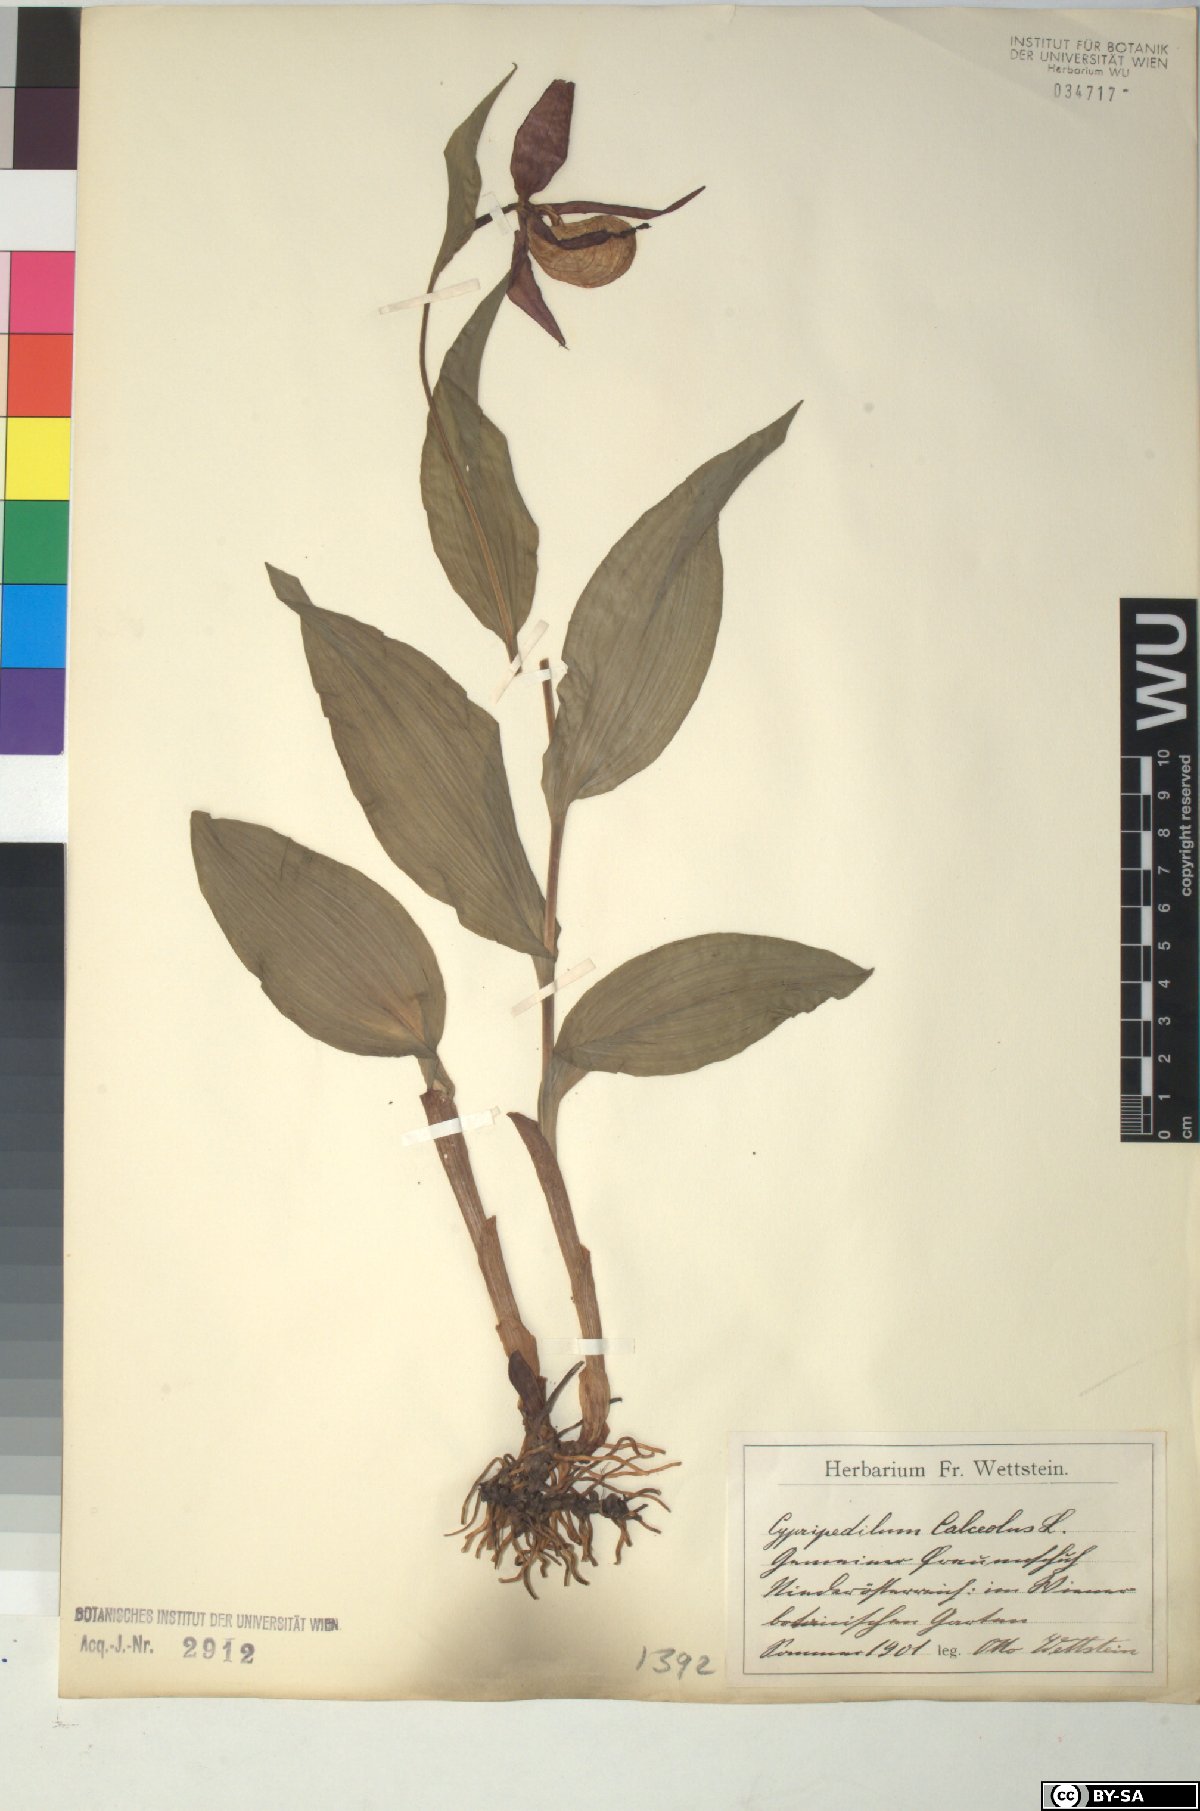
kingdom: Plantae
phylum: Tracheophyta
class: Liliopsida
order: Asparagales
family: Orchidaceae
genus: Cypripedium
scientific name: Cypripedium calceolus
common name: Lady's-slipper
